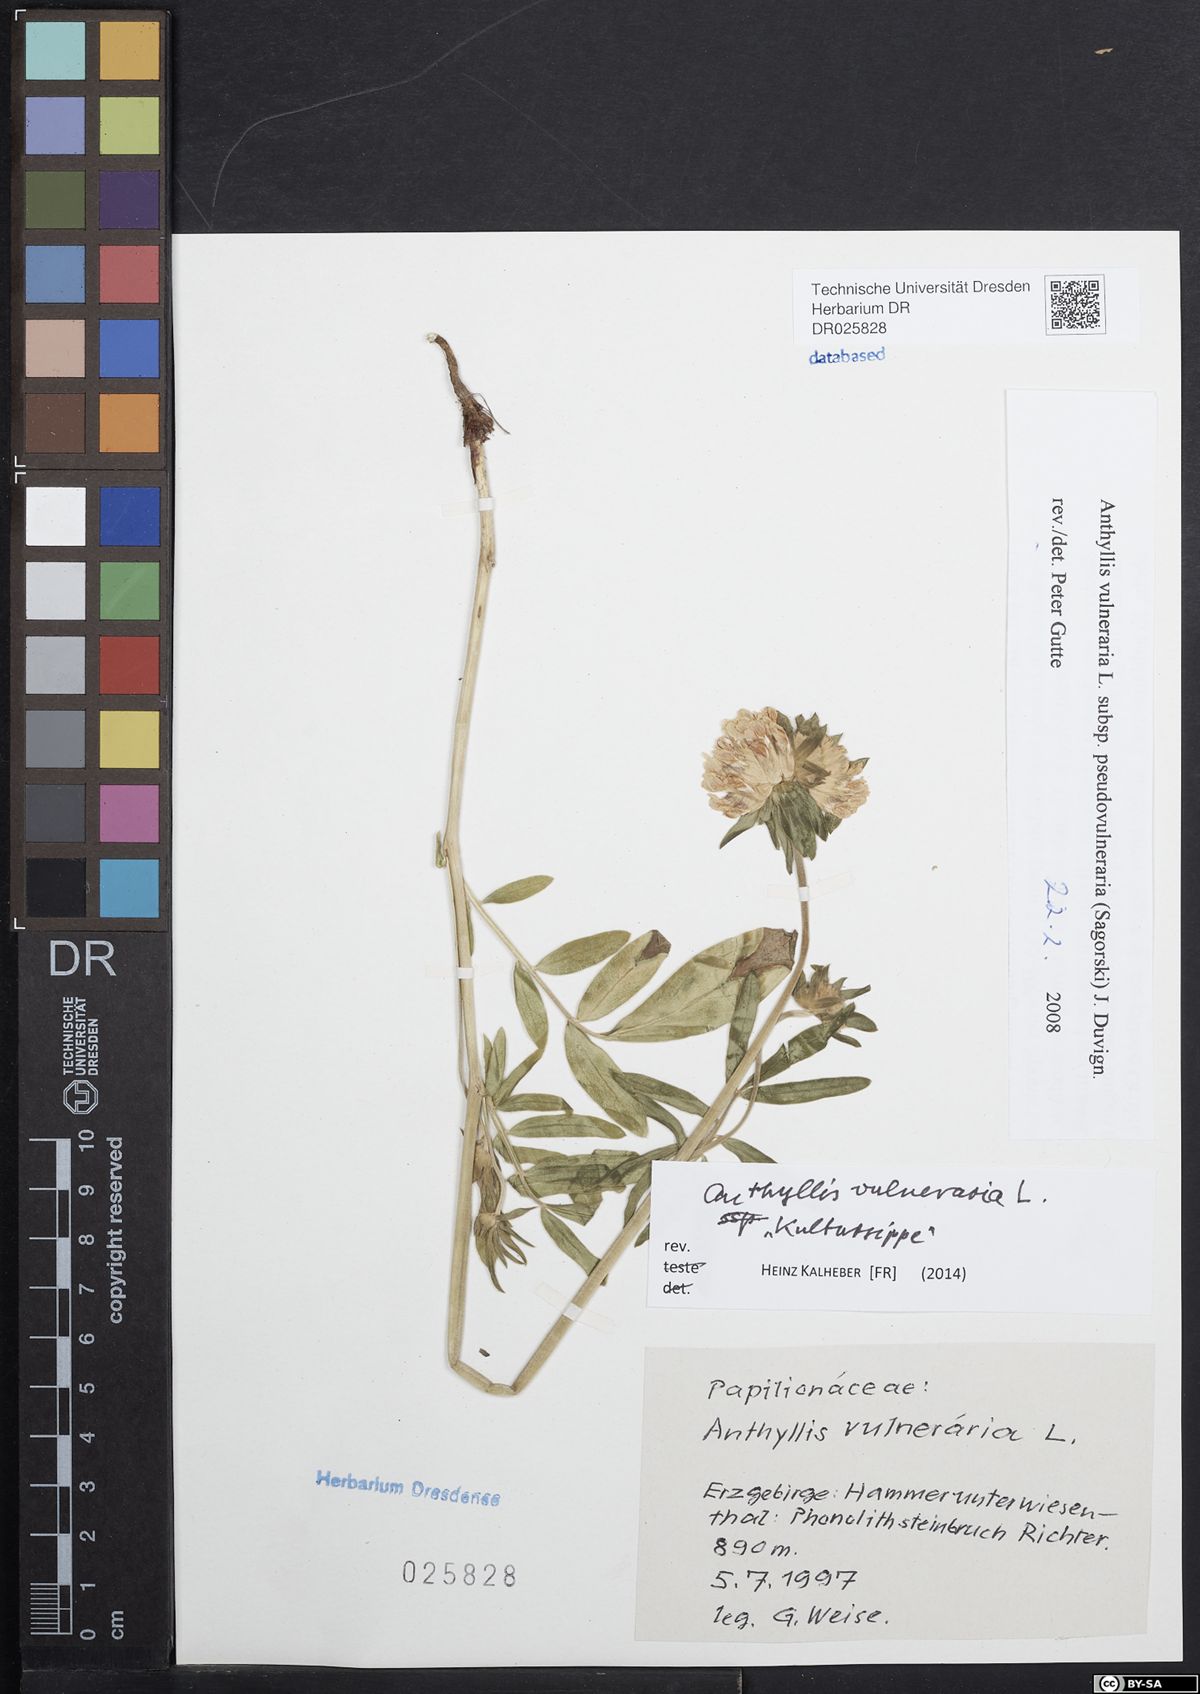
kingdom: Plantae
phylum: Tracheophyta
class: Magnoliopsida
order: Fabales
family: Fabaceae
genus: Anthyllis
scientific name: Anthyllis vulneraria
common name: Kidney vetch
